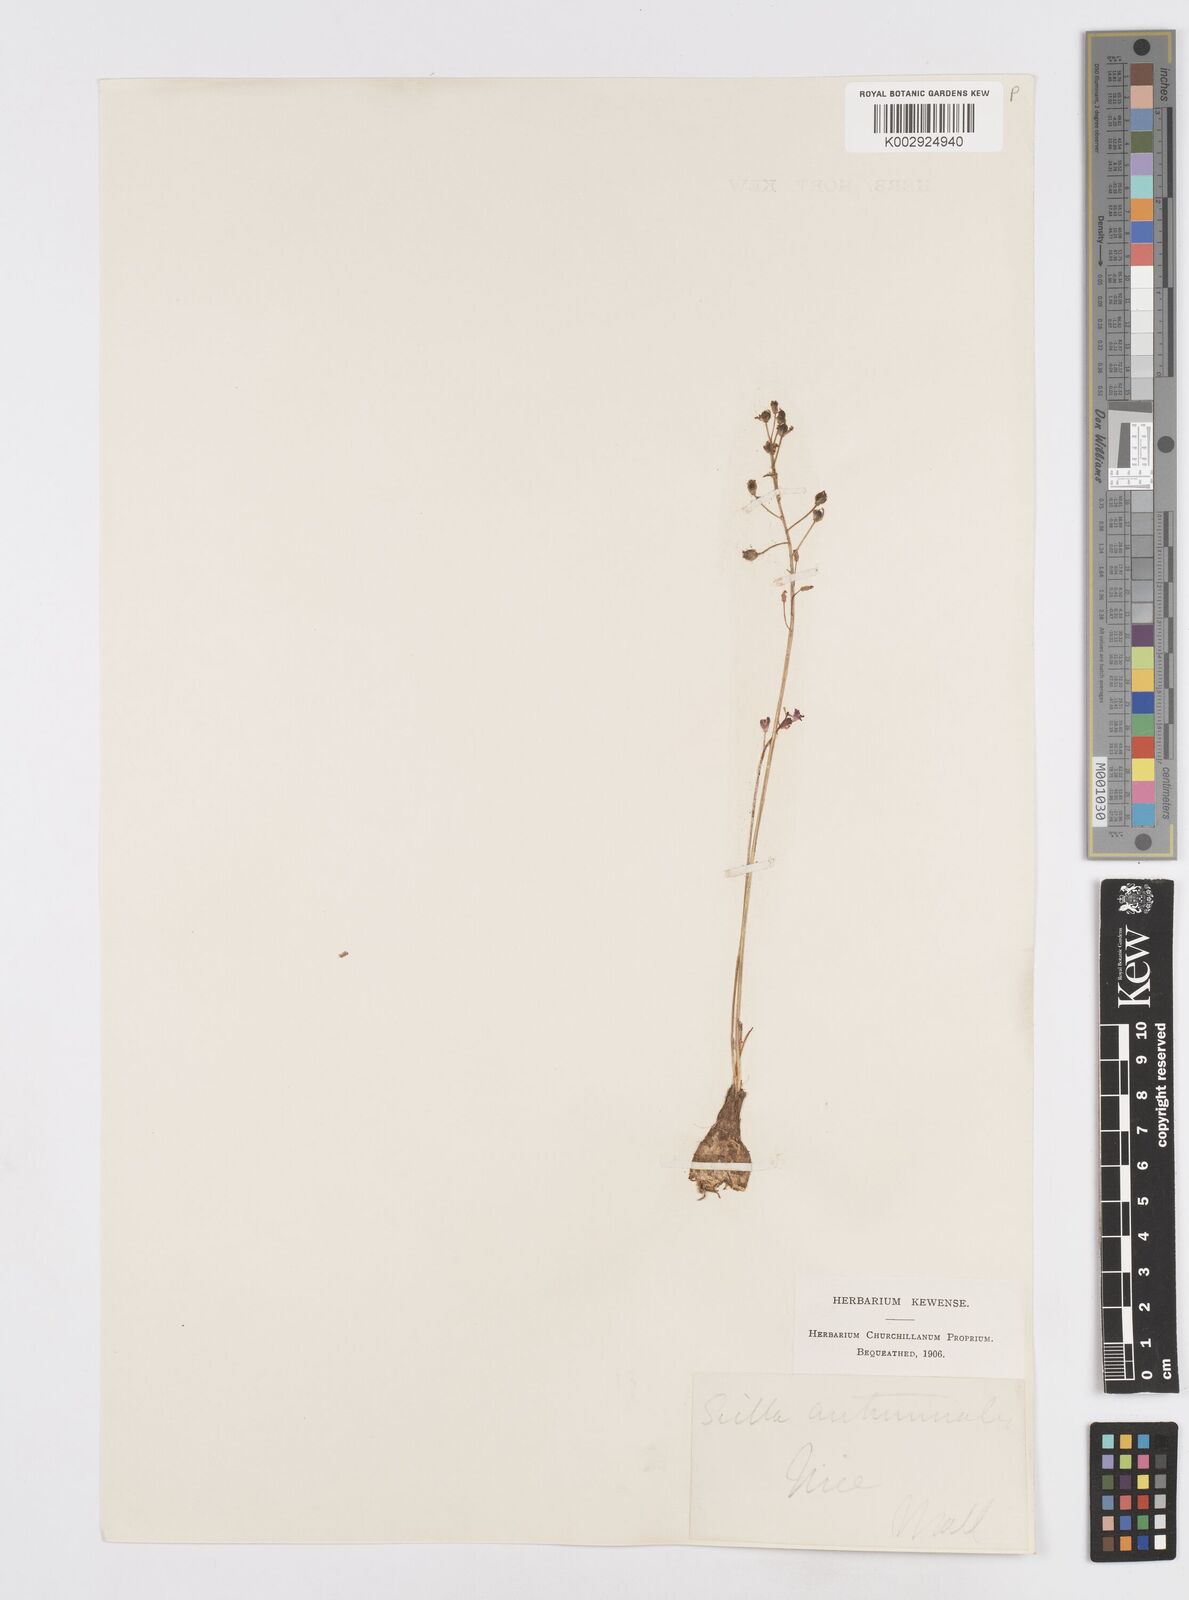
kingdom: Plantae
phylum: Tracheophyta
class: Liliopsida
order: Asparagales
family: Asparagaceae
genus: Prospero
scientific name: Prospero autumnale
